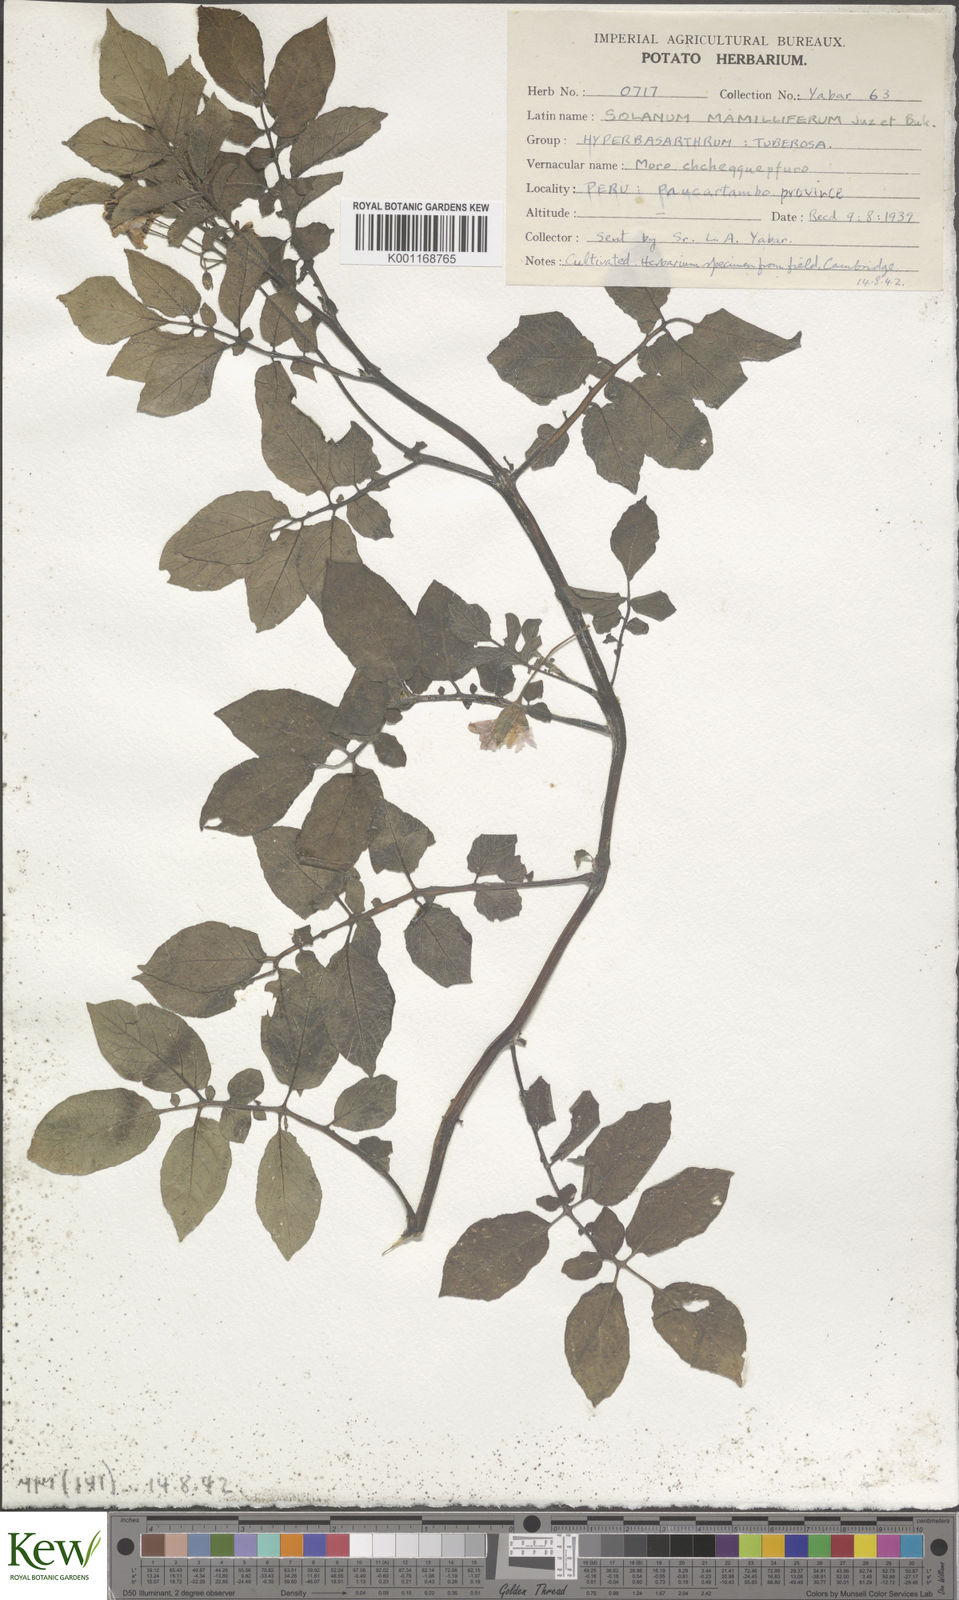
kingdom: Plantae
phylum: Tracheophyta
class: Magnoliopsida
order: Solanales
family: Solanaceae
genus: Solanum
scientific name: Solanum chaucha
